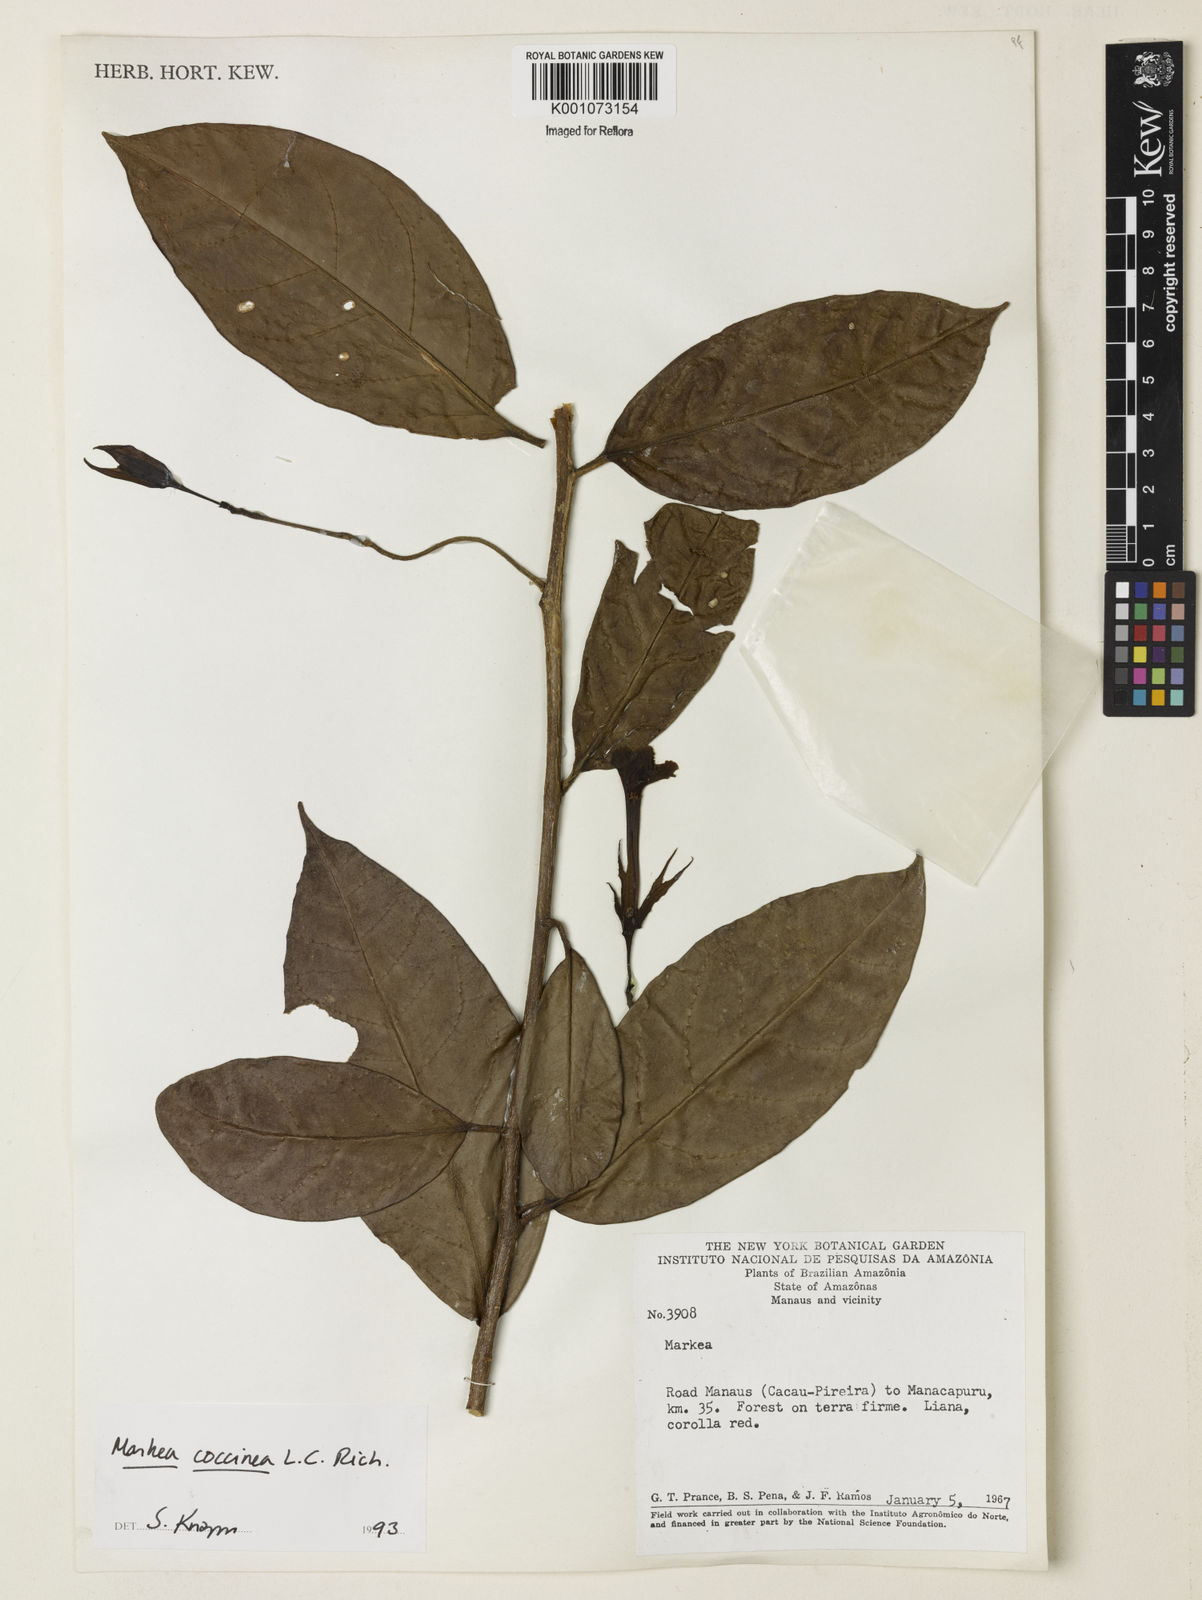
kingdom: Plantae
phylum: Tracheophyta
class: Magnoliopsida
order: Solanales
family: Solanaceae
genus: Markea
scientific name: Markea coccinea
